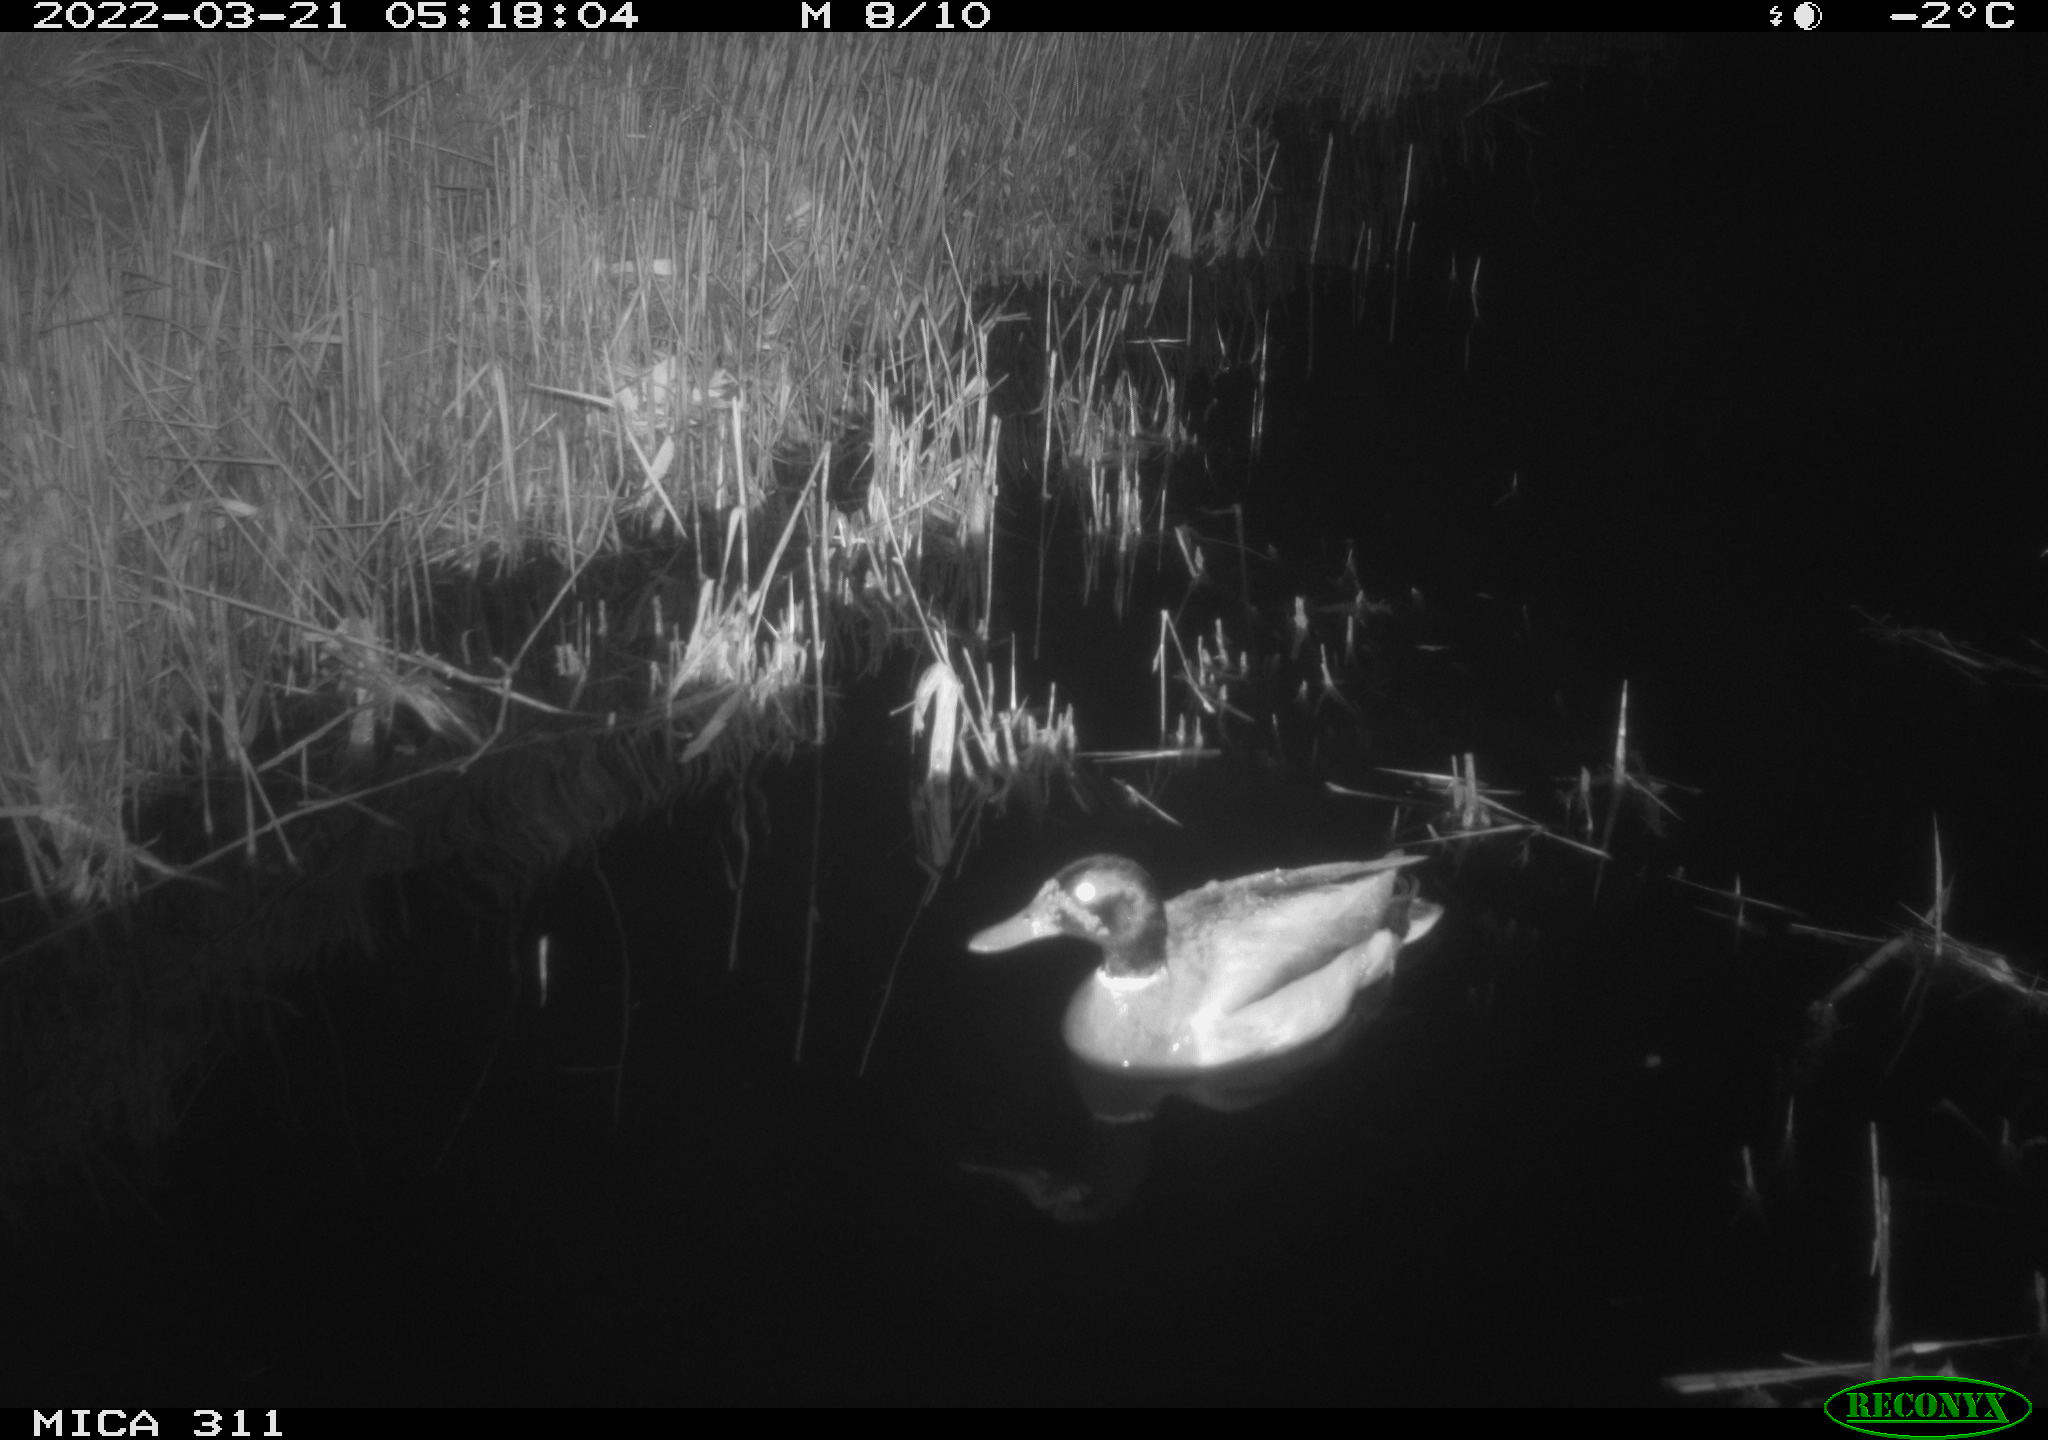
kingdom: Animalia
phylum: Chordata
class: Aves
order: Anseriformes
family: Anatidae
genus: Anas
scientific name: Anas
